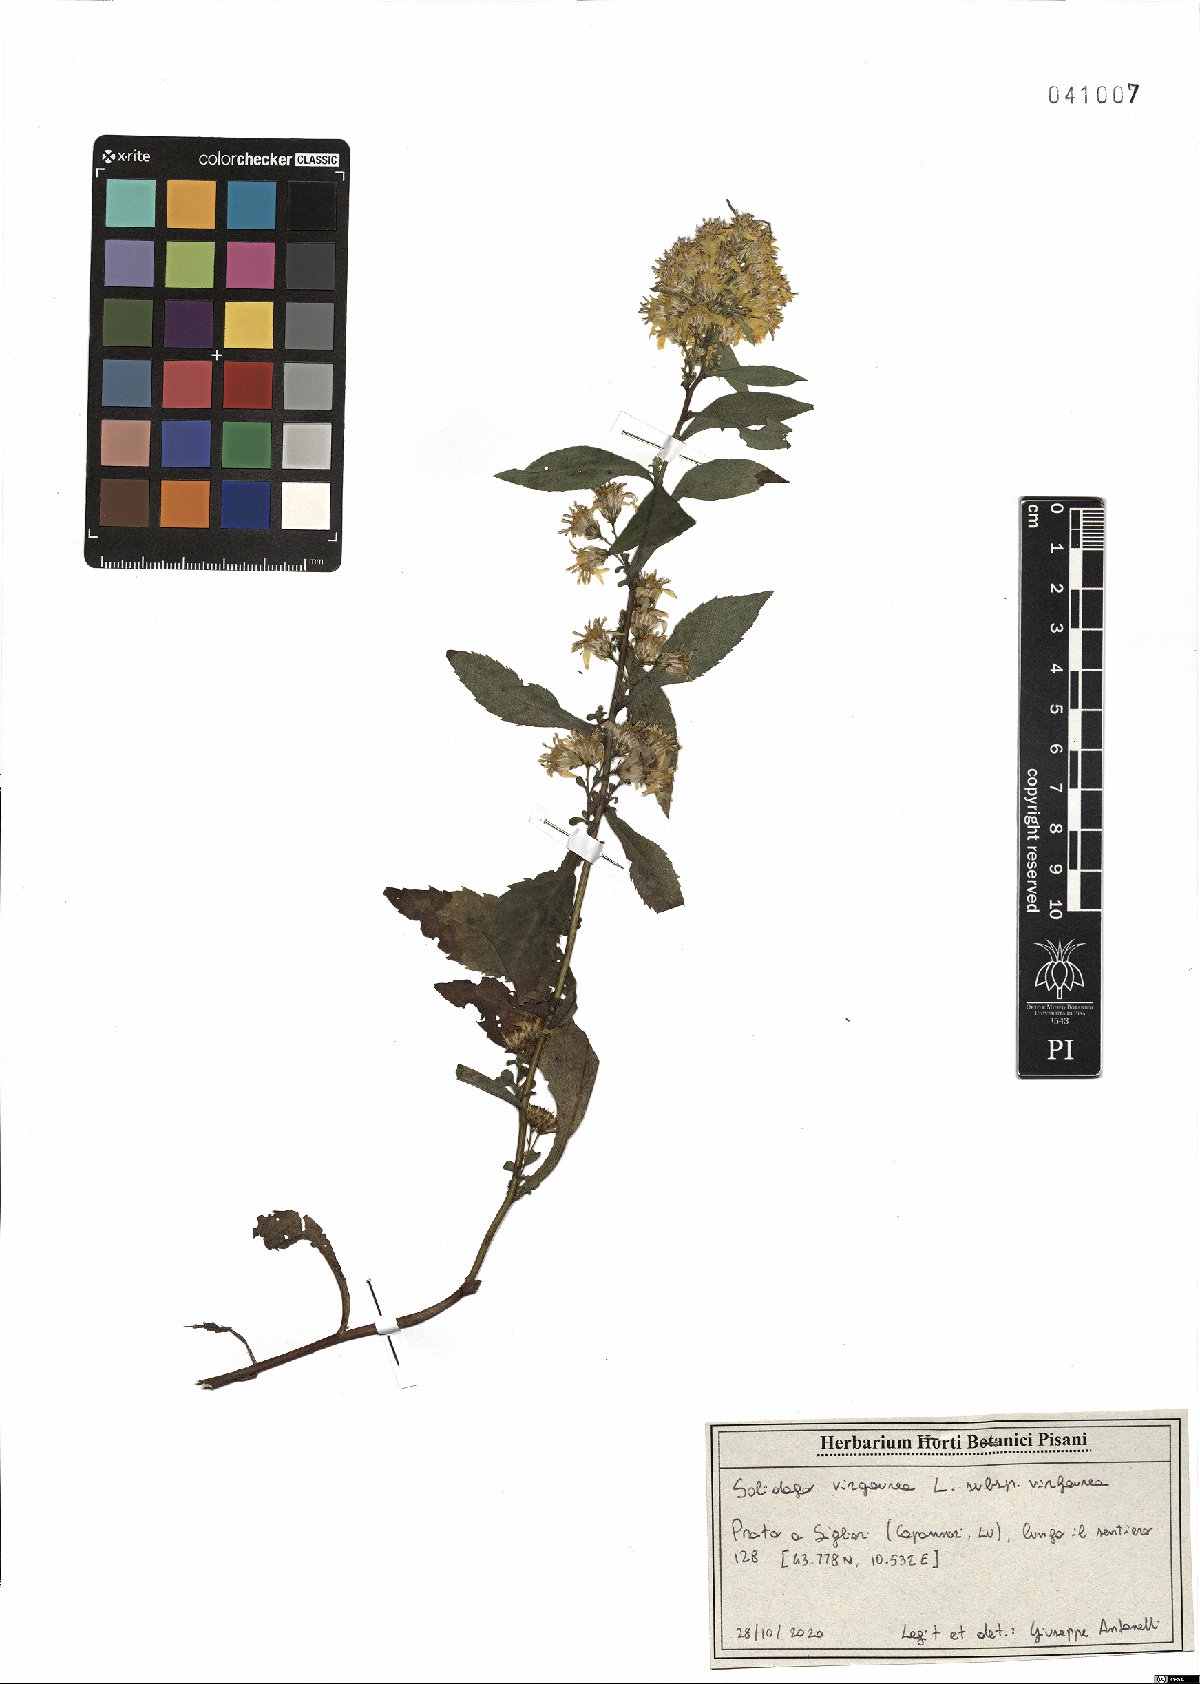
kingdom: Plantae
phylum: Tracheophyta
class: Magnoliopsida
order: Asterales
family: Asteraceae
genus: Solidago
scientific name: Solidago virgaurea
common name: Goldenrod
